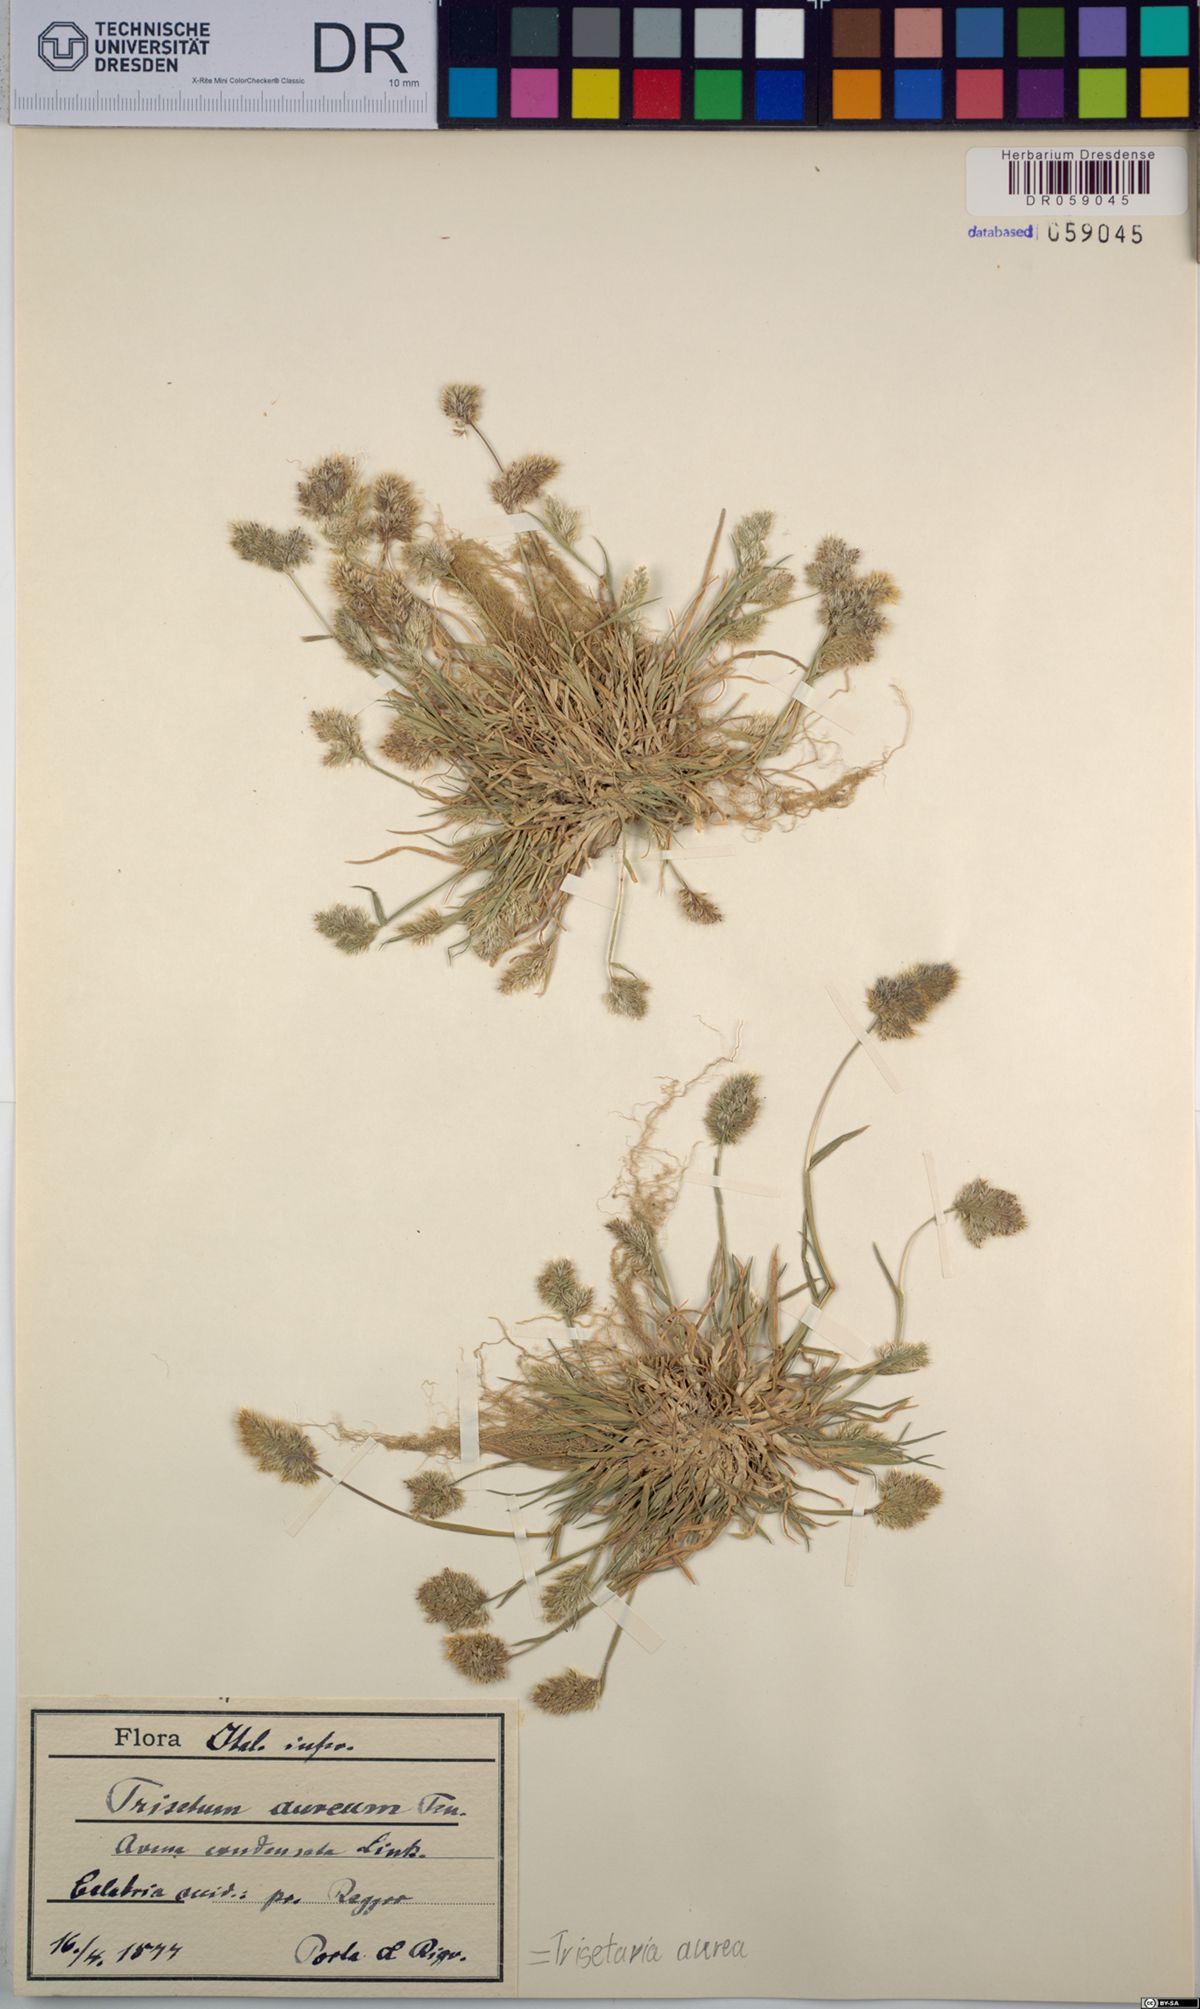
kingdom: Plantae
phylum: Tracheophyta
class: Liliopsida
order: Poales
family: Poaceae
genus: Trisetaria
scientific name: Trisetaria aurea
